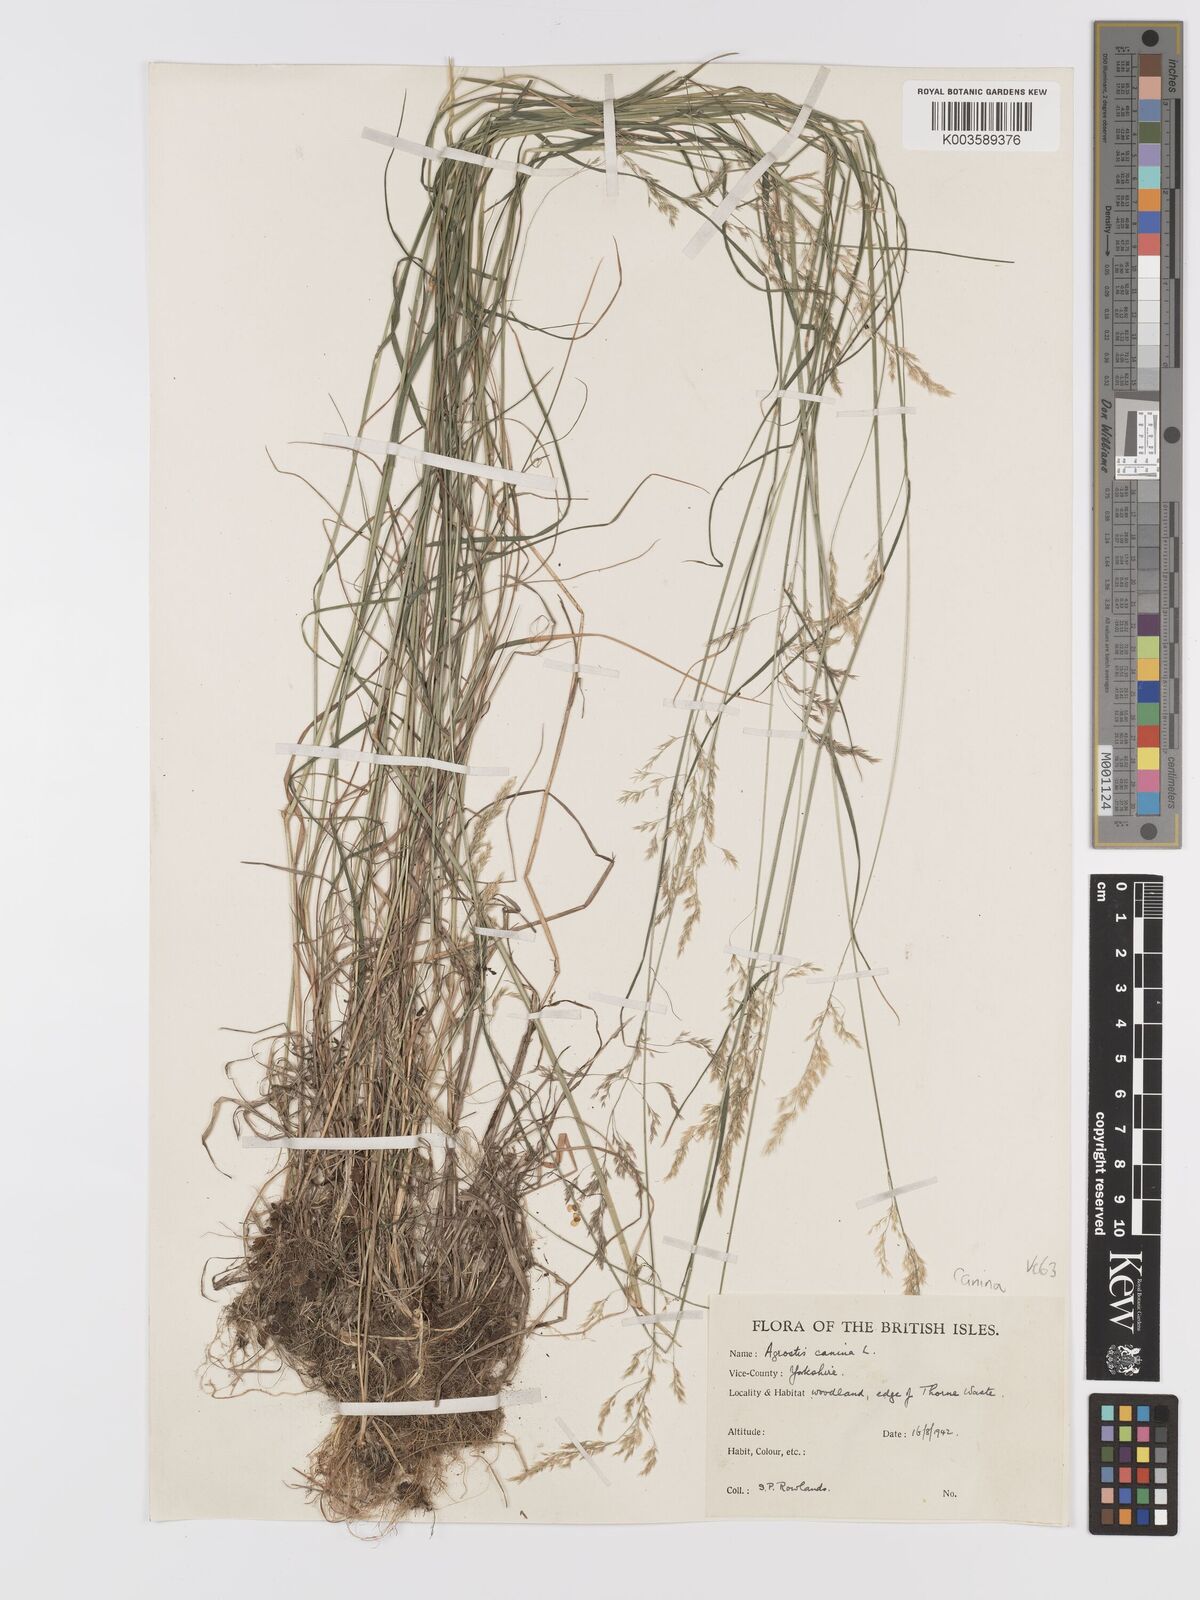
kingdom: Plantae
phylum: Tracheophyta
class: Liliopsida
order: Poales
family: Poaceae
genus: Agrostis
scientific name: Agrostis canina
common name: Velvet bent
